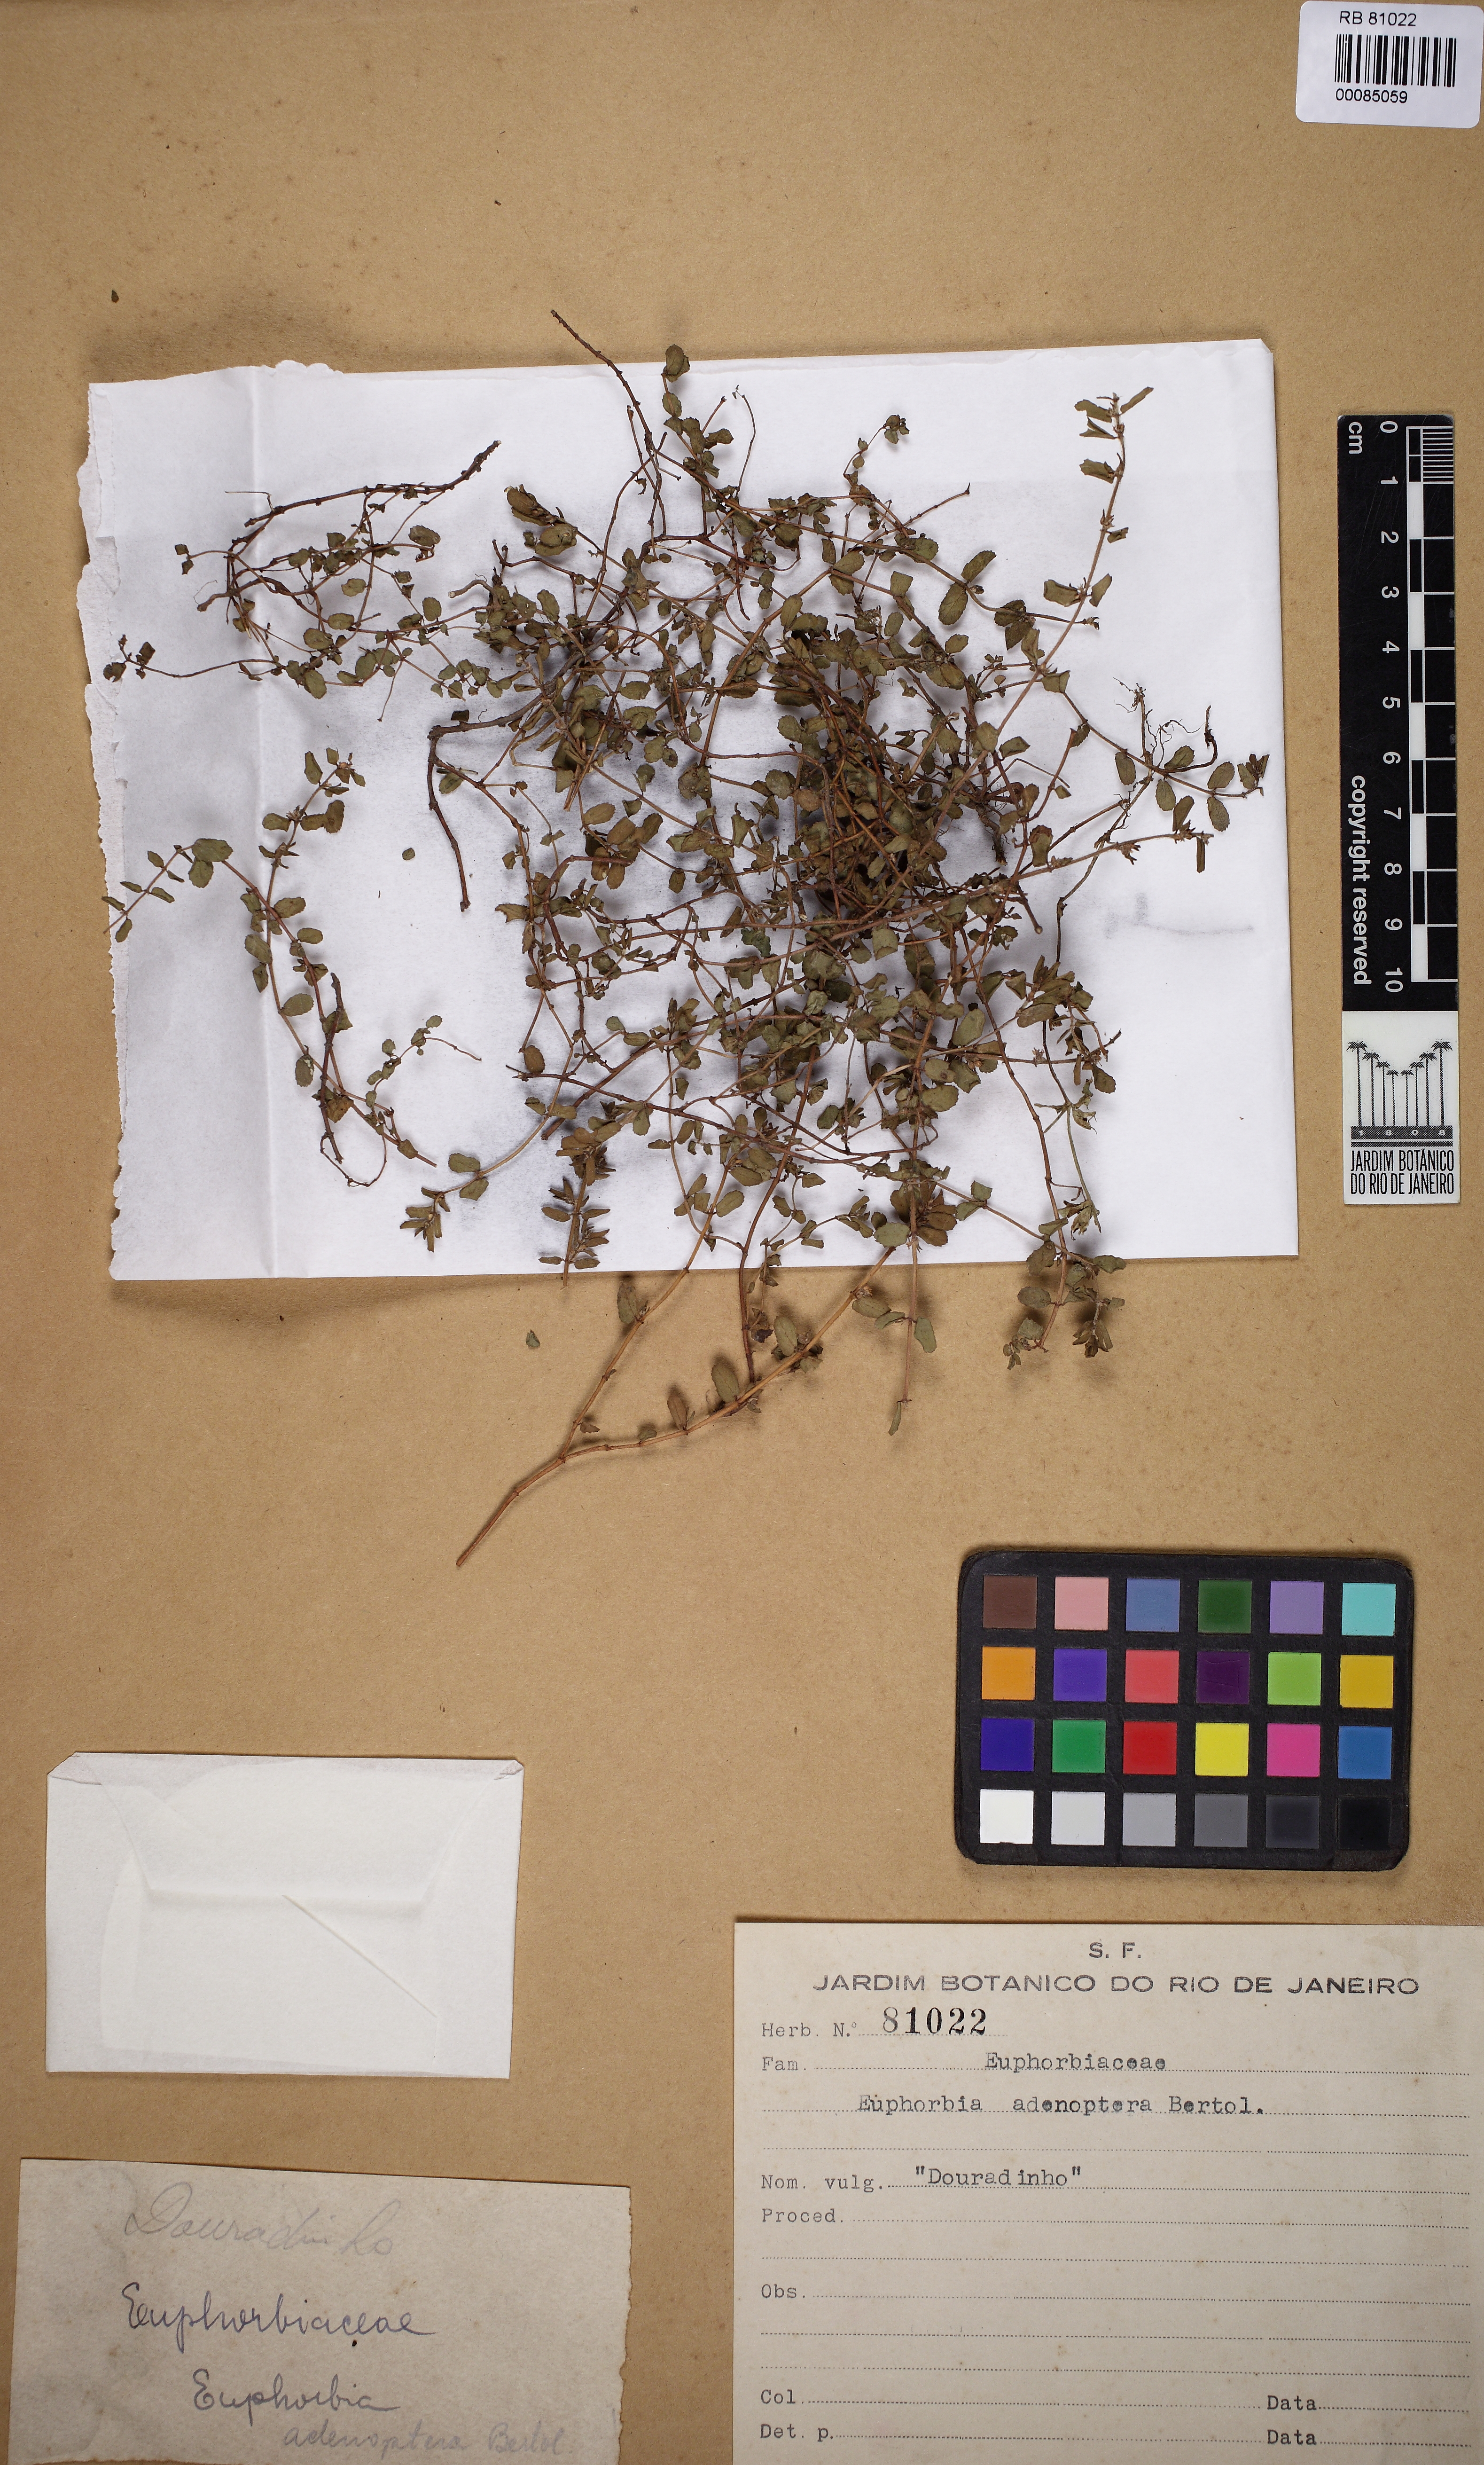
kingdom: Plantae
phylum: Tracheophyta
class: Magnoliopsida
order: Malpighiales
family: Euphorbiaceae
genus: Euphorbia
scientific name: Euphorbia adenochila
